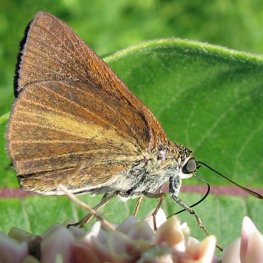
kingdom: Animalia
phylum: Arthropoda
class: Insecta
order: Lepidoptera
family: Hesperiidae
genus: Euphyes
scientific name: Euphyes dukesi
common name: Dukes' Skipper
